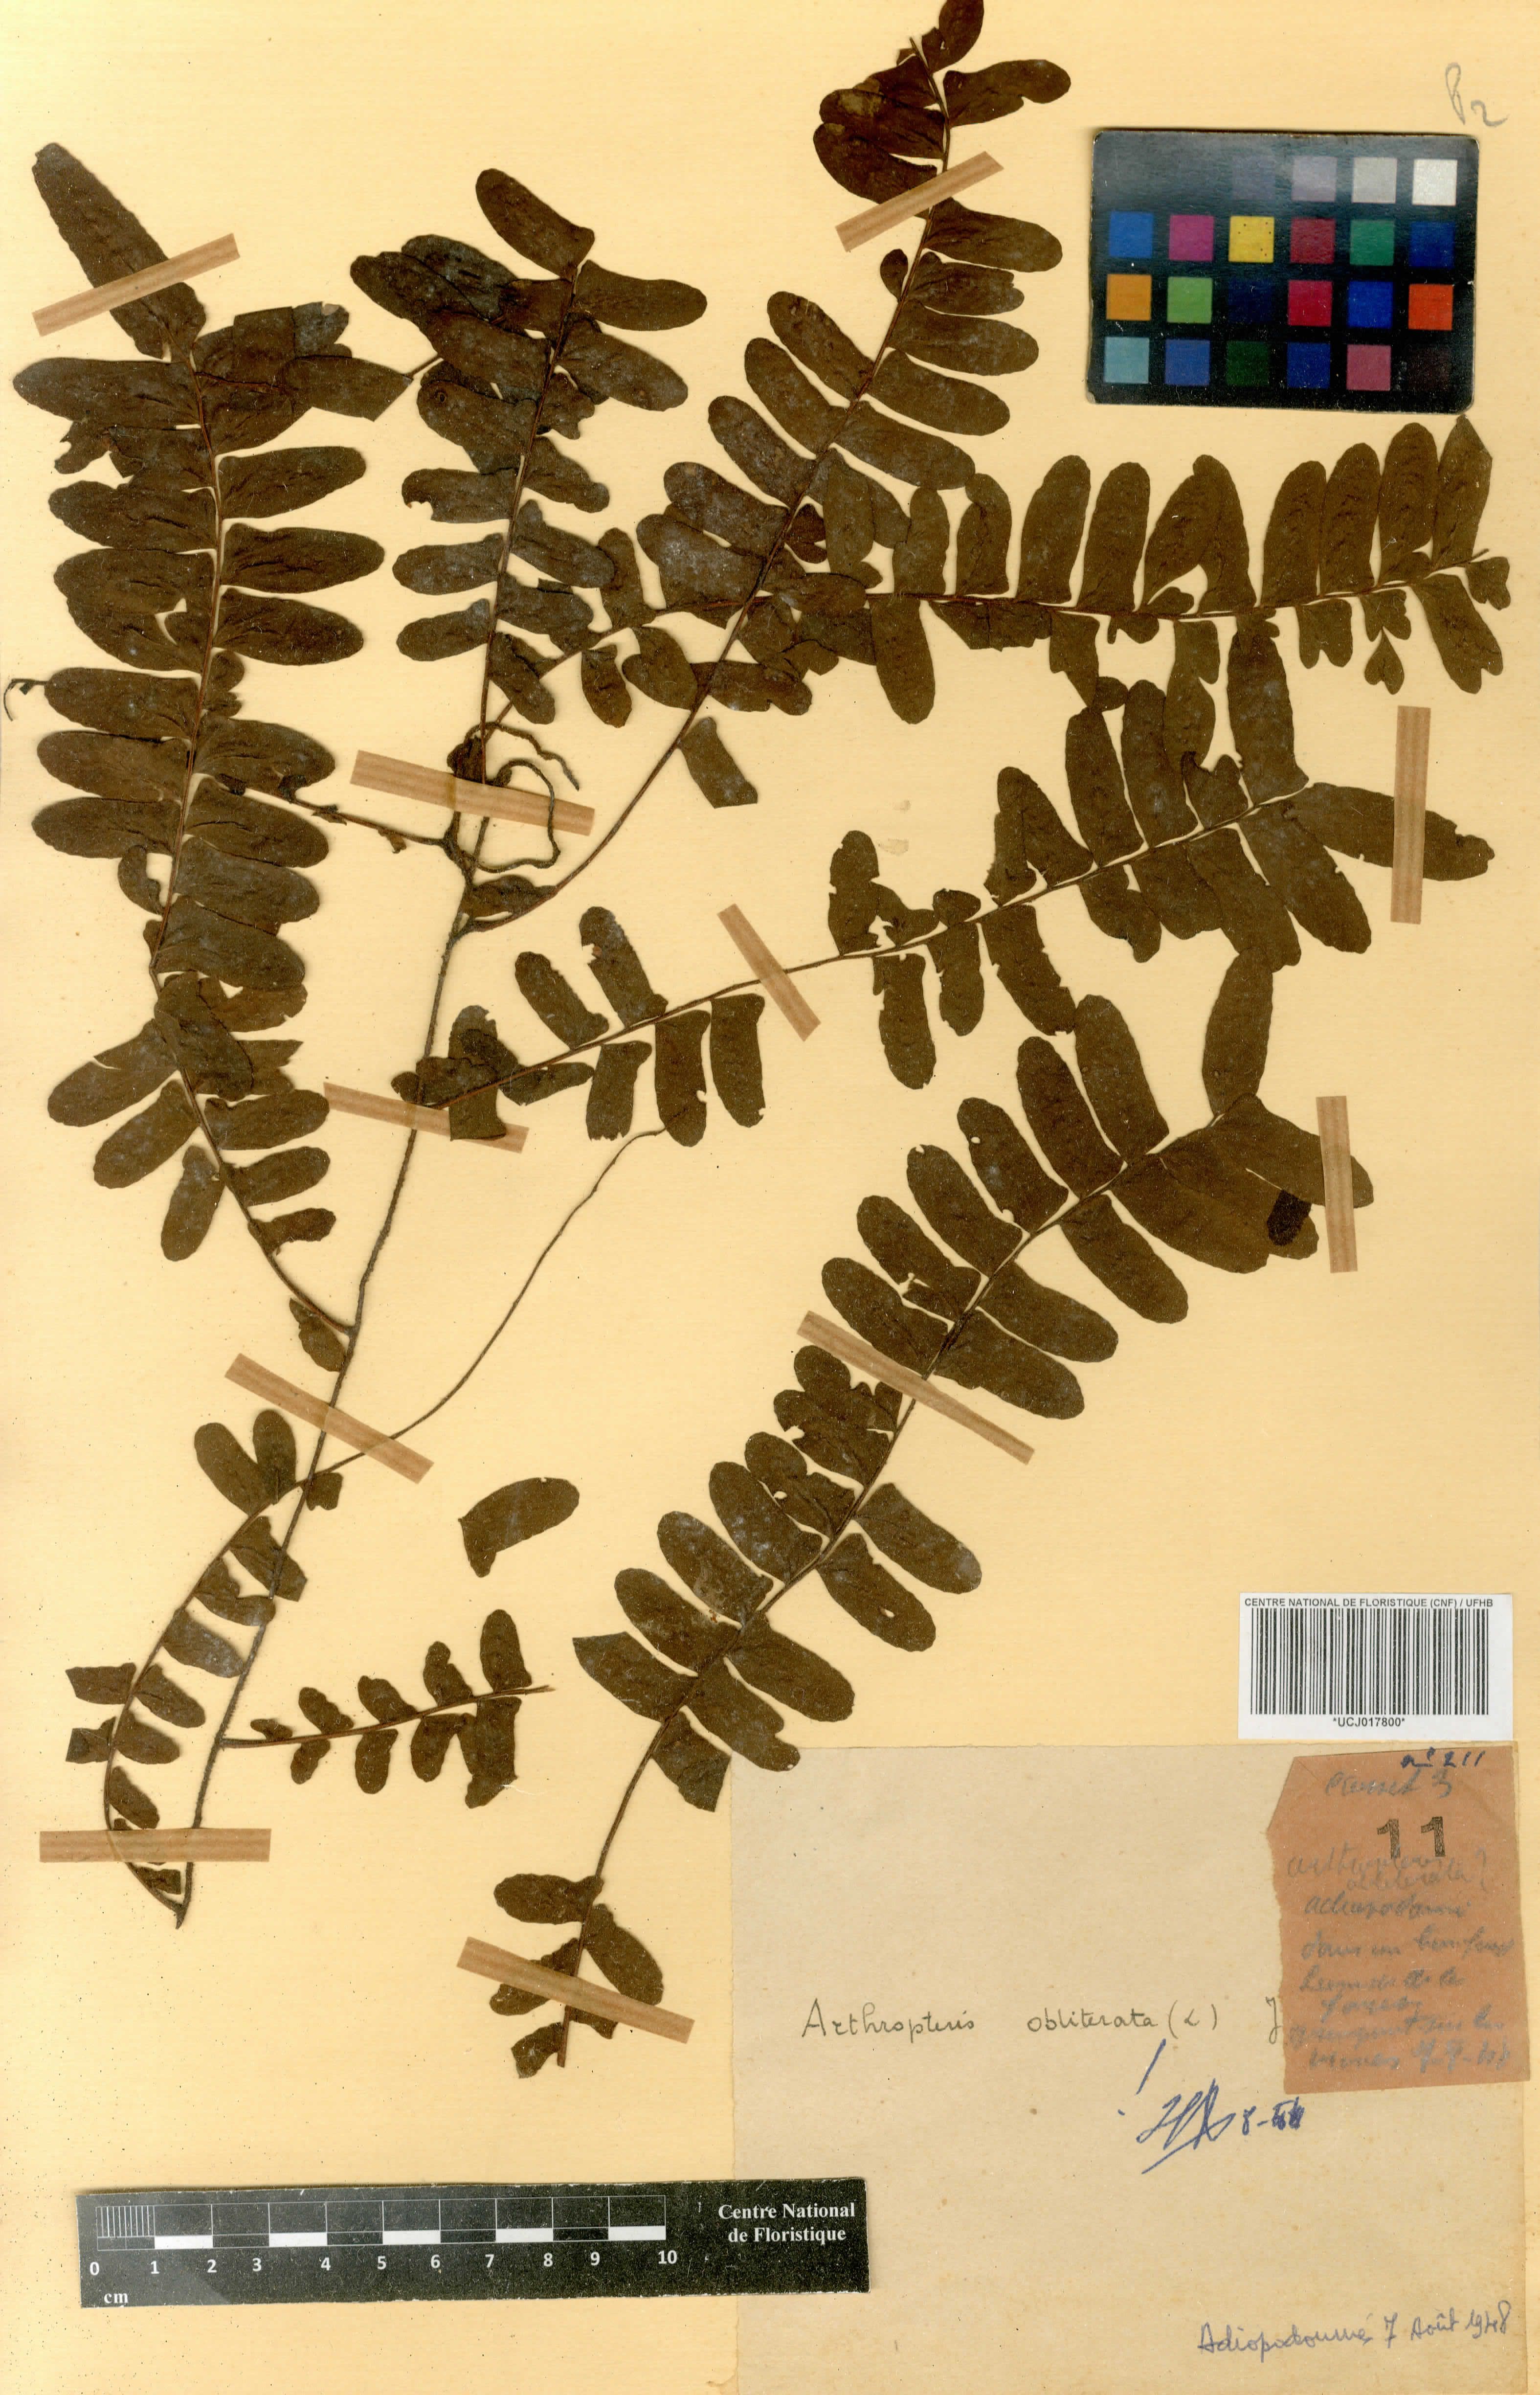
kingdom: Plantae
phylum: Tracheophyta
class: Polypodiopsida
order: Polypodiales
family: Nephrolepidaceae
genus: Nephrolepis
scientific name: Nephrolepis obliterata
